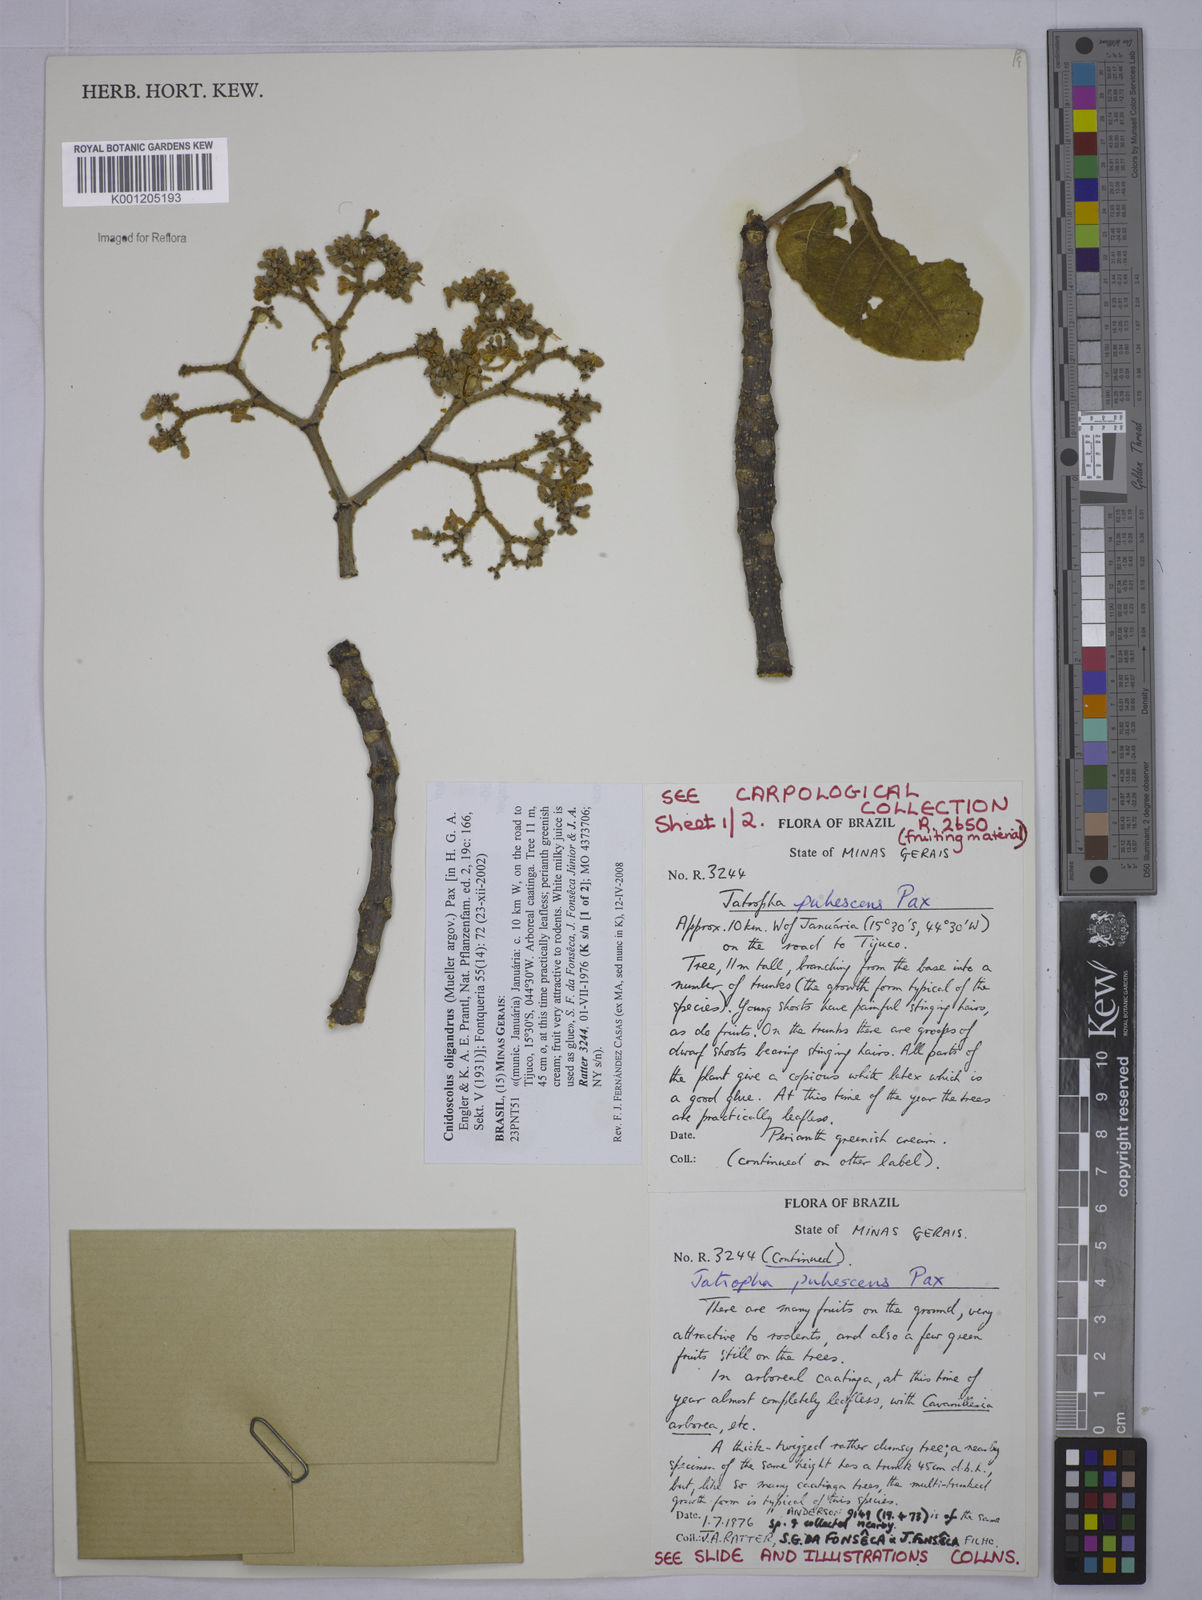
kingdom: Plantae
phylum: Tracheophyta
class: Magnoliopsida
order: Malpighiales
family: Euphorbiaceae
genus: Cnidoscolus
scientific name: Cnidoscolus
